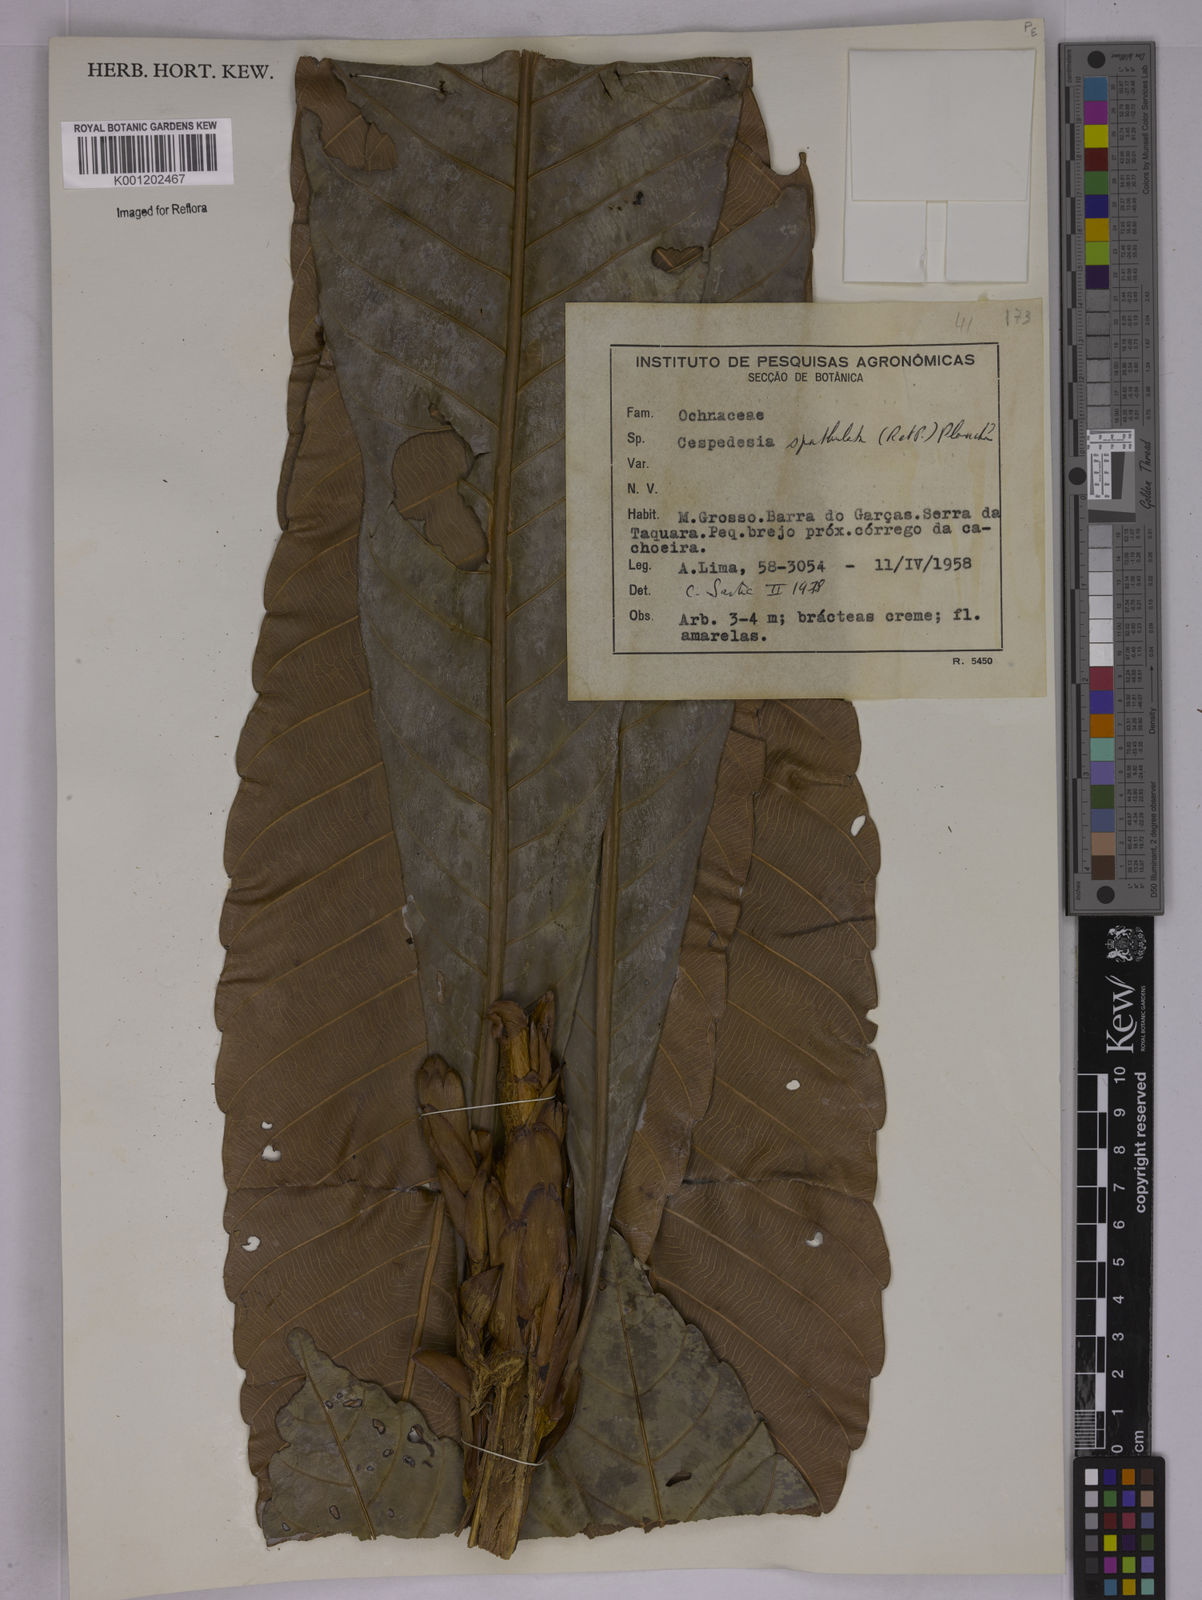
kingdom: Plantae
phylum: Tracheophyta
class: Magnoliopsida
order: Malpighiales
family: Ochnaceae
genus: Cespedesia
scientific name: Cespedesia spathulata
